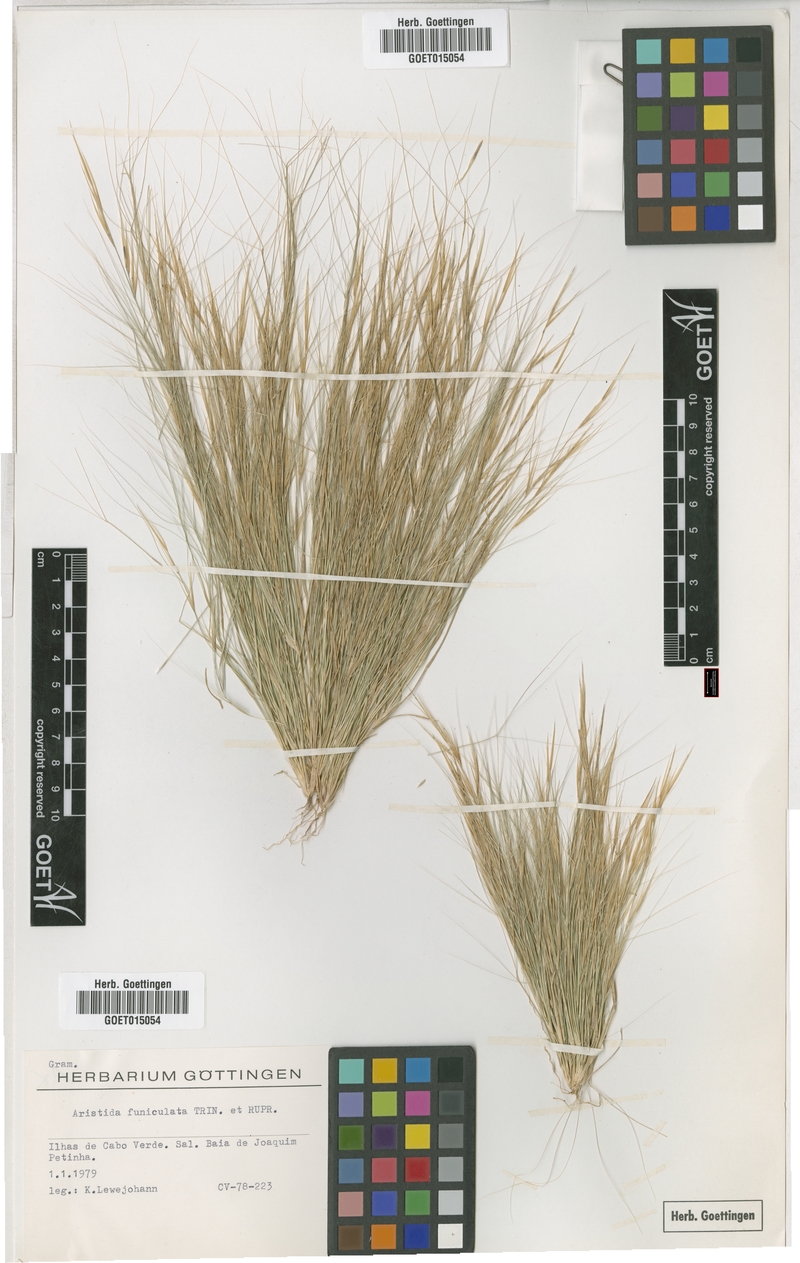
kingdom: Plantae
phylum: Tracheophyta
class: Liliopsida
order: Poales
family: Poaceae
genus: Aristida
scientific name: Aristida funiculata
